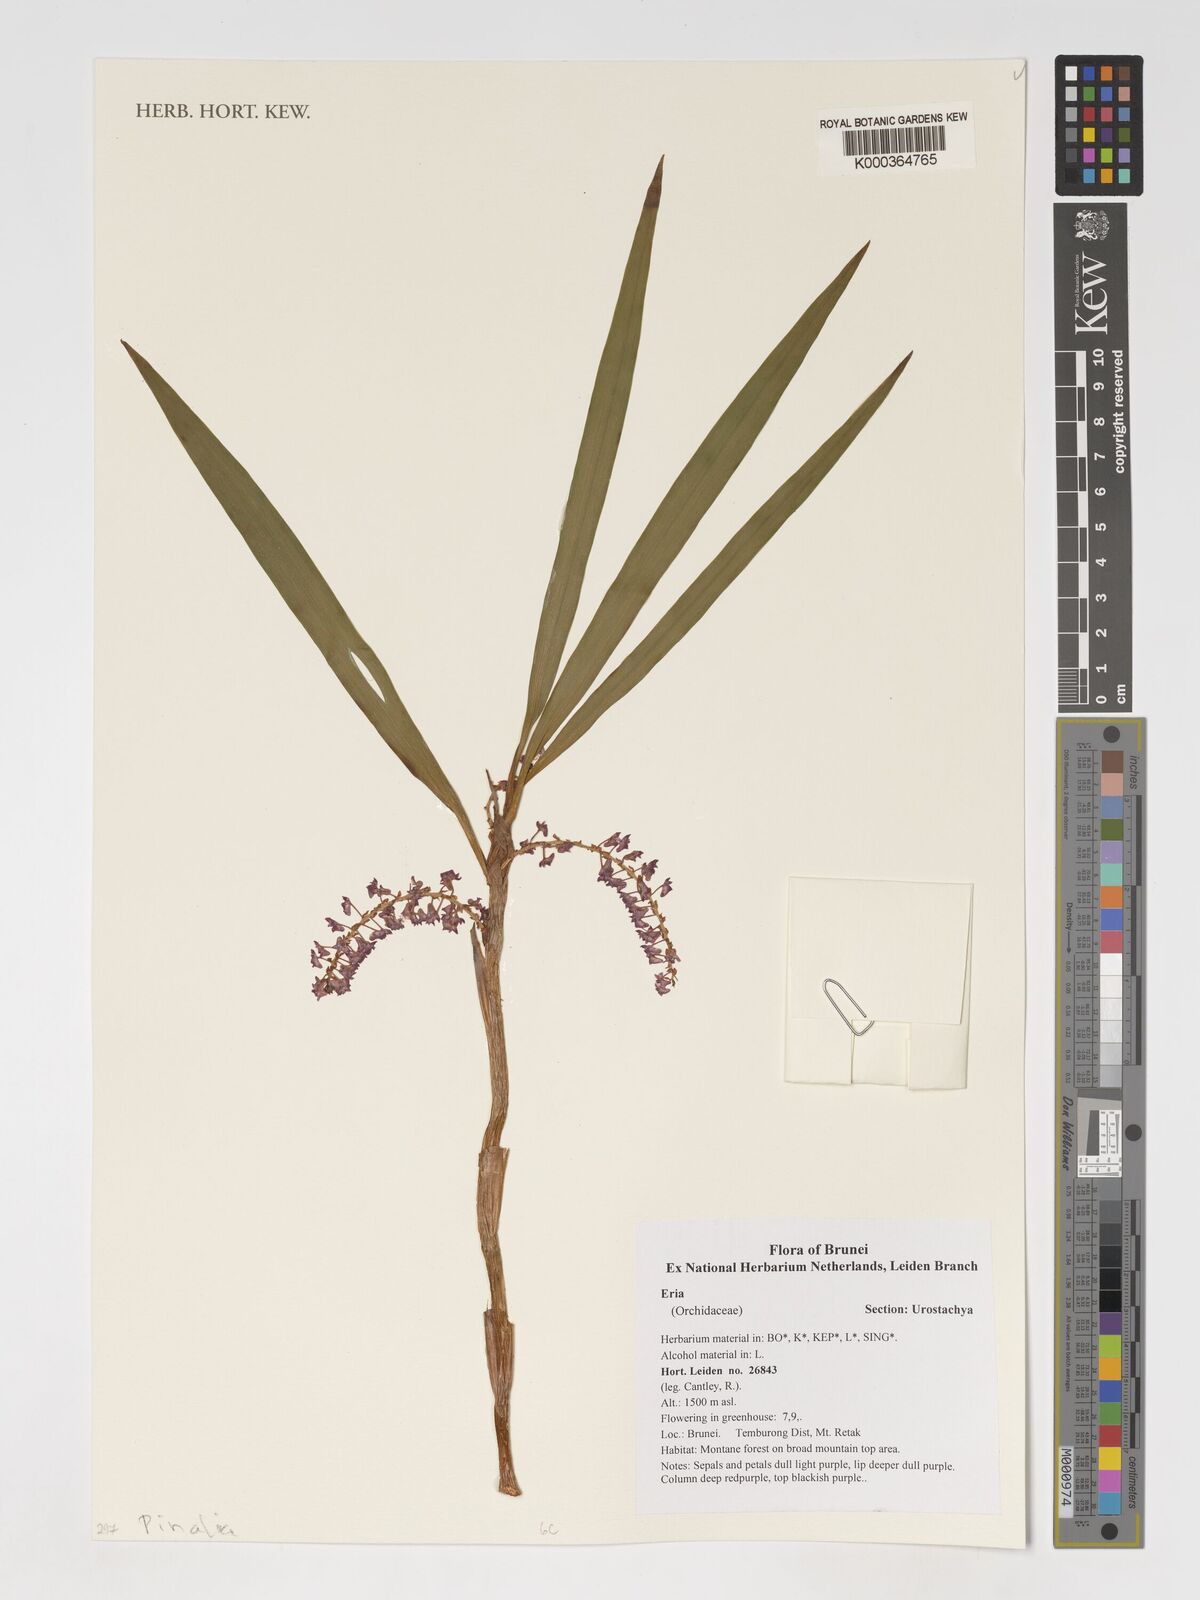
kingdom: Plantae
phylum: Tracheophyta
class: Liliopsida
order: Asparagales
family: Orchidaceae
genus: Eria
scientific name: Eria
